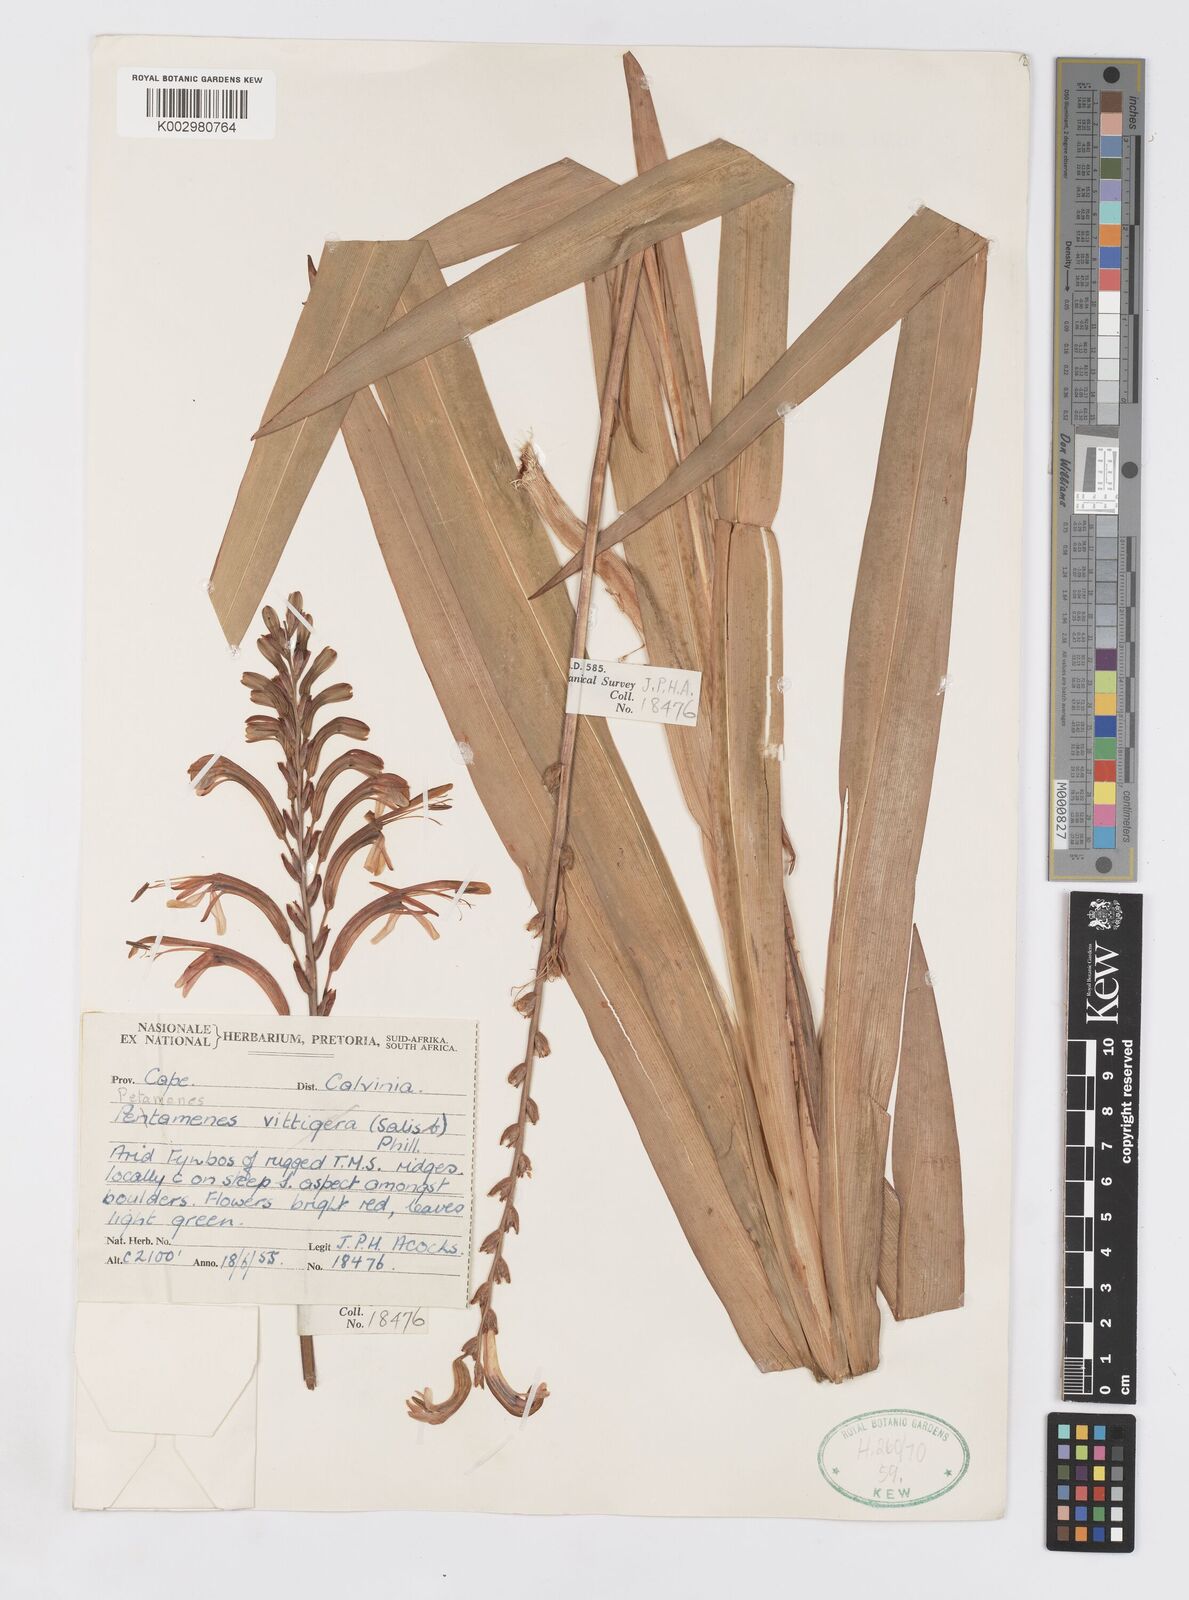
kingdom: Plantae
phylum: Tracheophyta
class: Liliopsida
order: Asparagales
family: Iridaceae
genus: Chasmanthe
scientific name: Chasmanthe floribunda
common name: African cornflag
